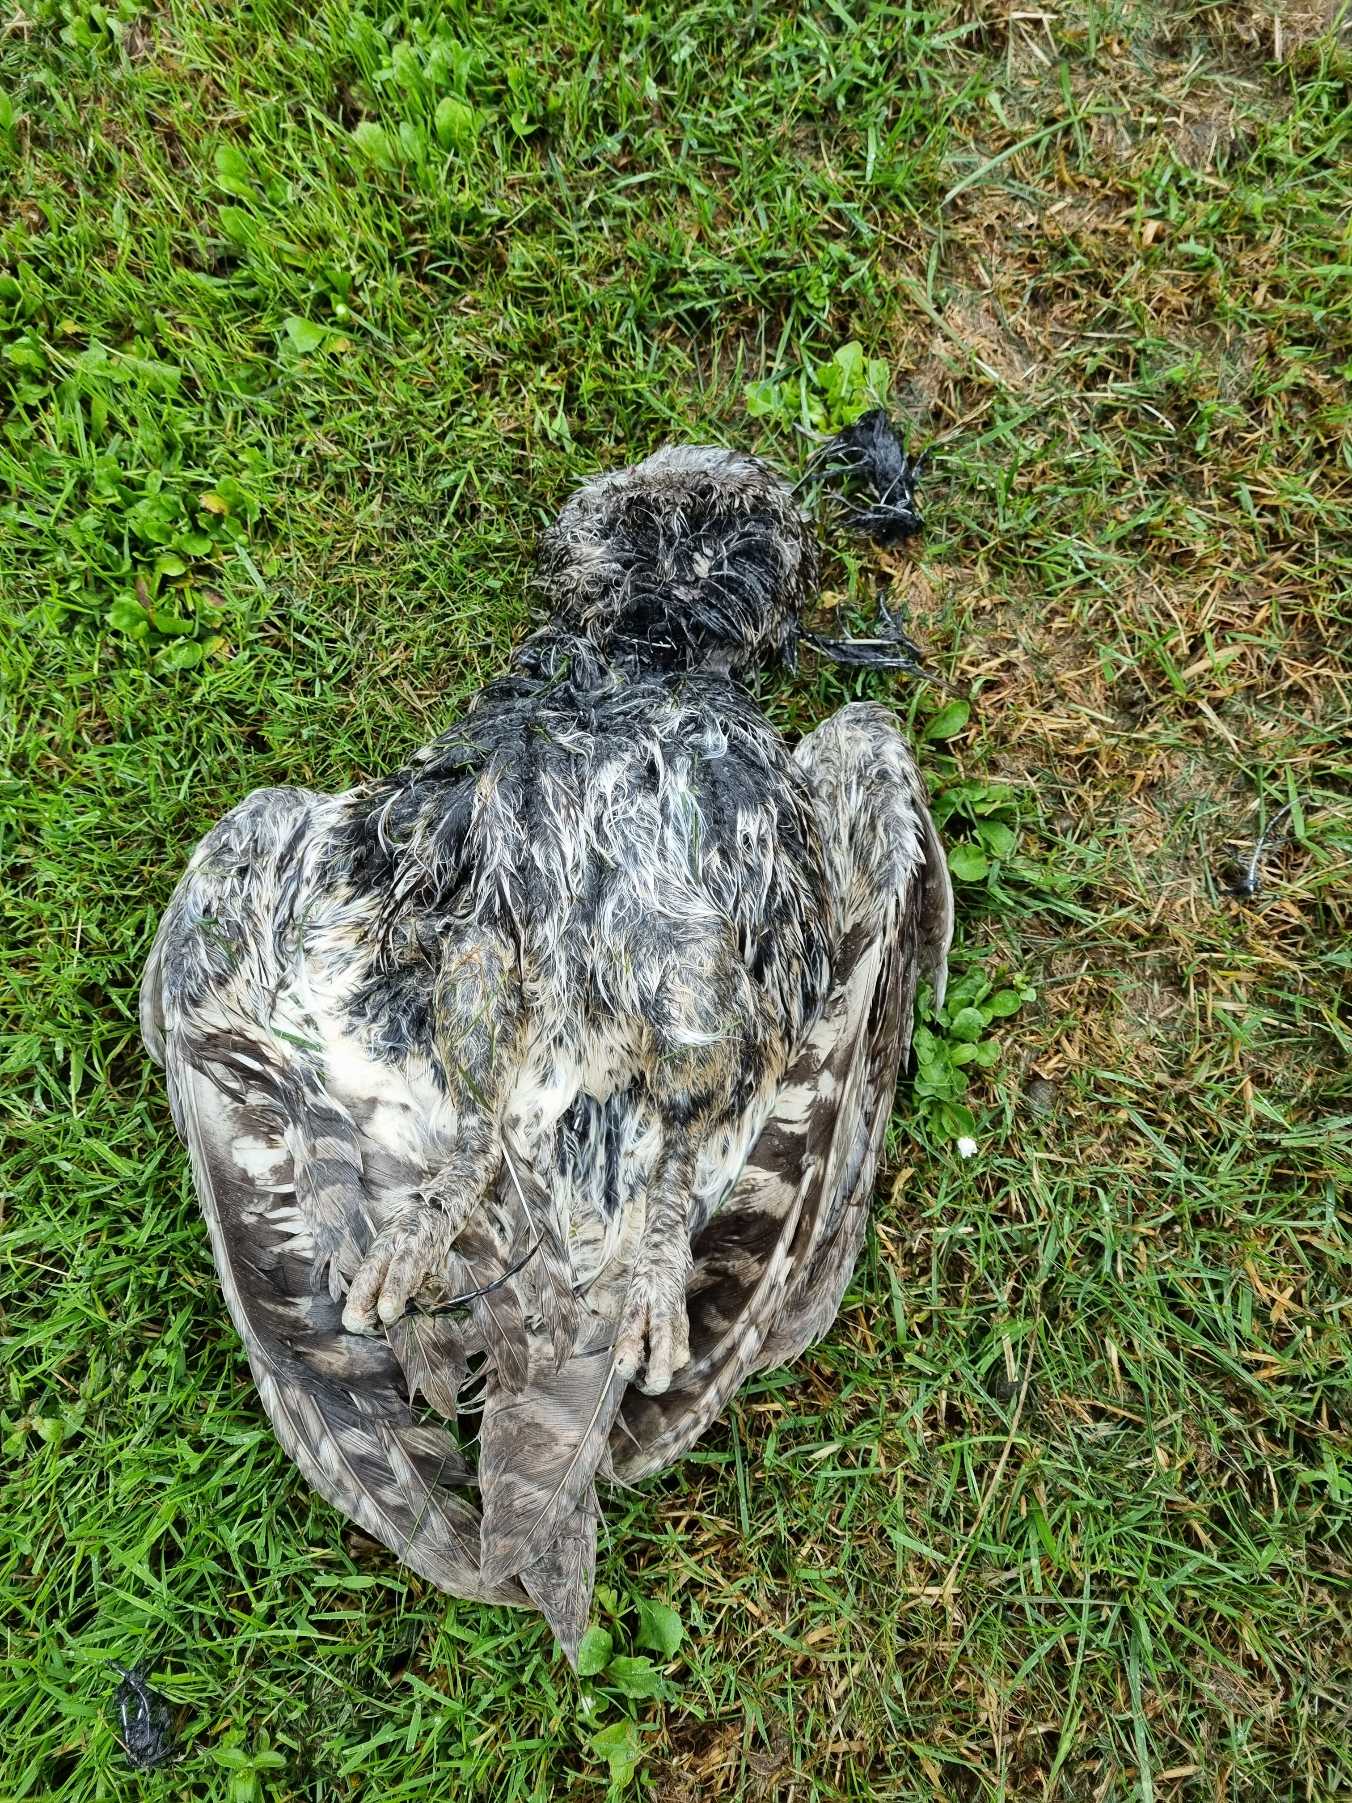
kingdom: Animalia
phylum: Chordata
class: Aves
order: Strigiformes
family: Strigidae
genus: Strix
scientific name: Strix aluco
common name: Natugle
